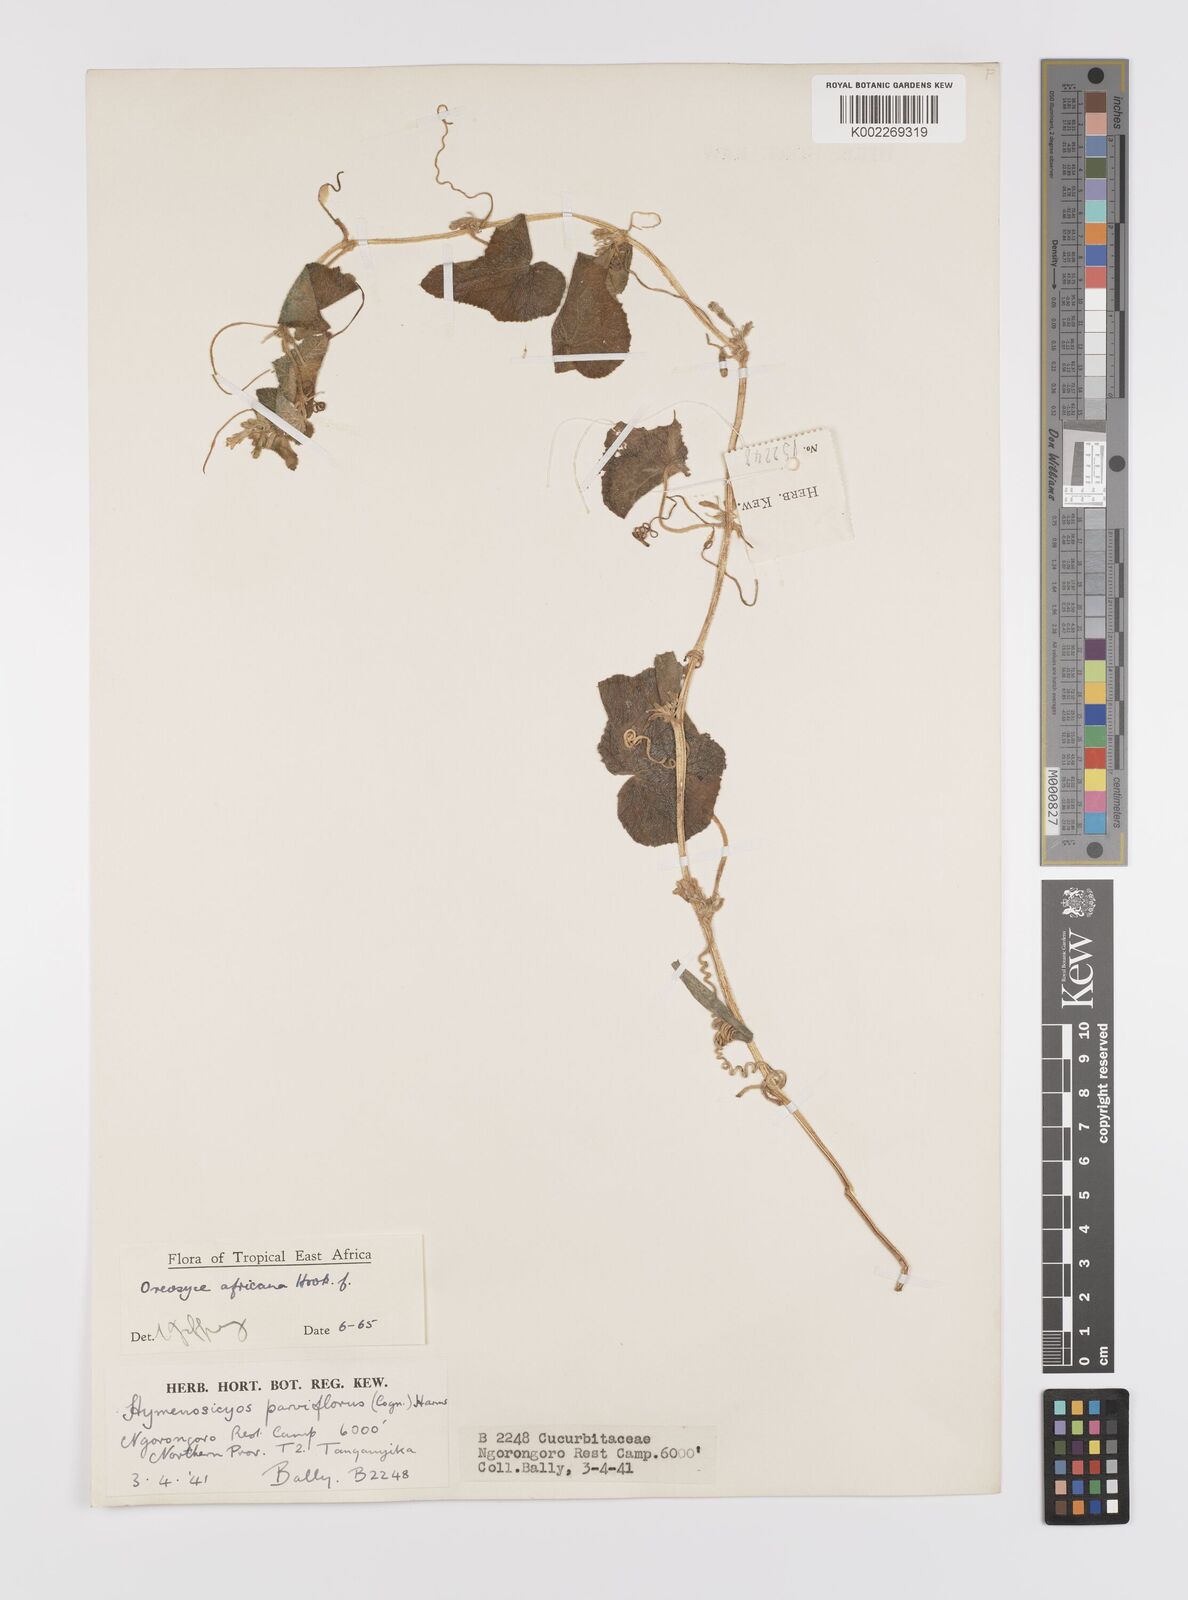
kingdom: Plantae
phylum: Tracheophyta
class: Magnoliopsida
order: Cucurbitales
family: Cucurbitaceae
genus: Cucumis
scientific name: Cucumis oreosyce
